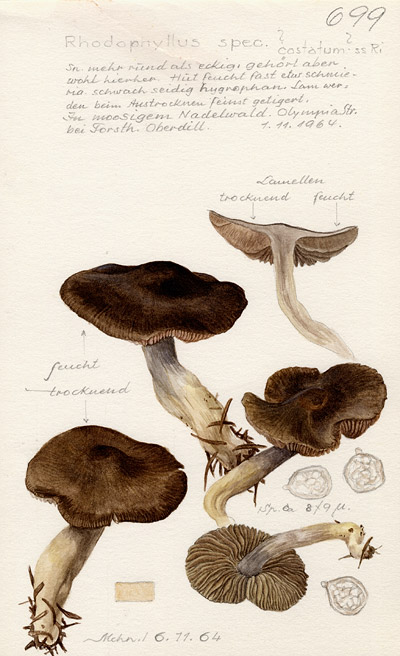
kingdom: Fungi
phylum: Basidiomycota
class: Agaricomycetes
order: Agaricales
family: Entolomataceae
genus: Entoloma
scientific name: Entoloma
